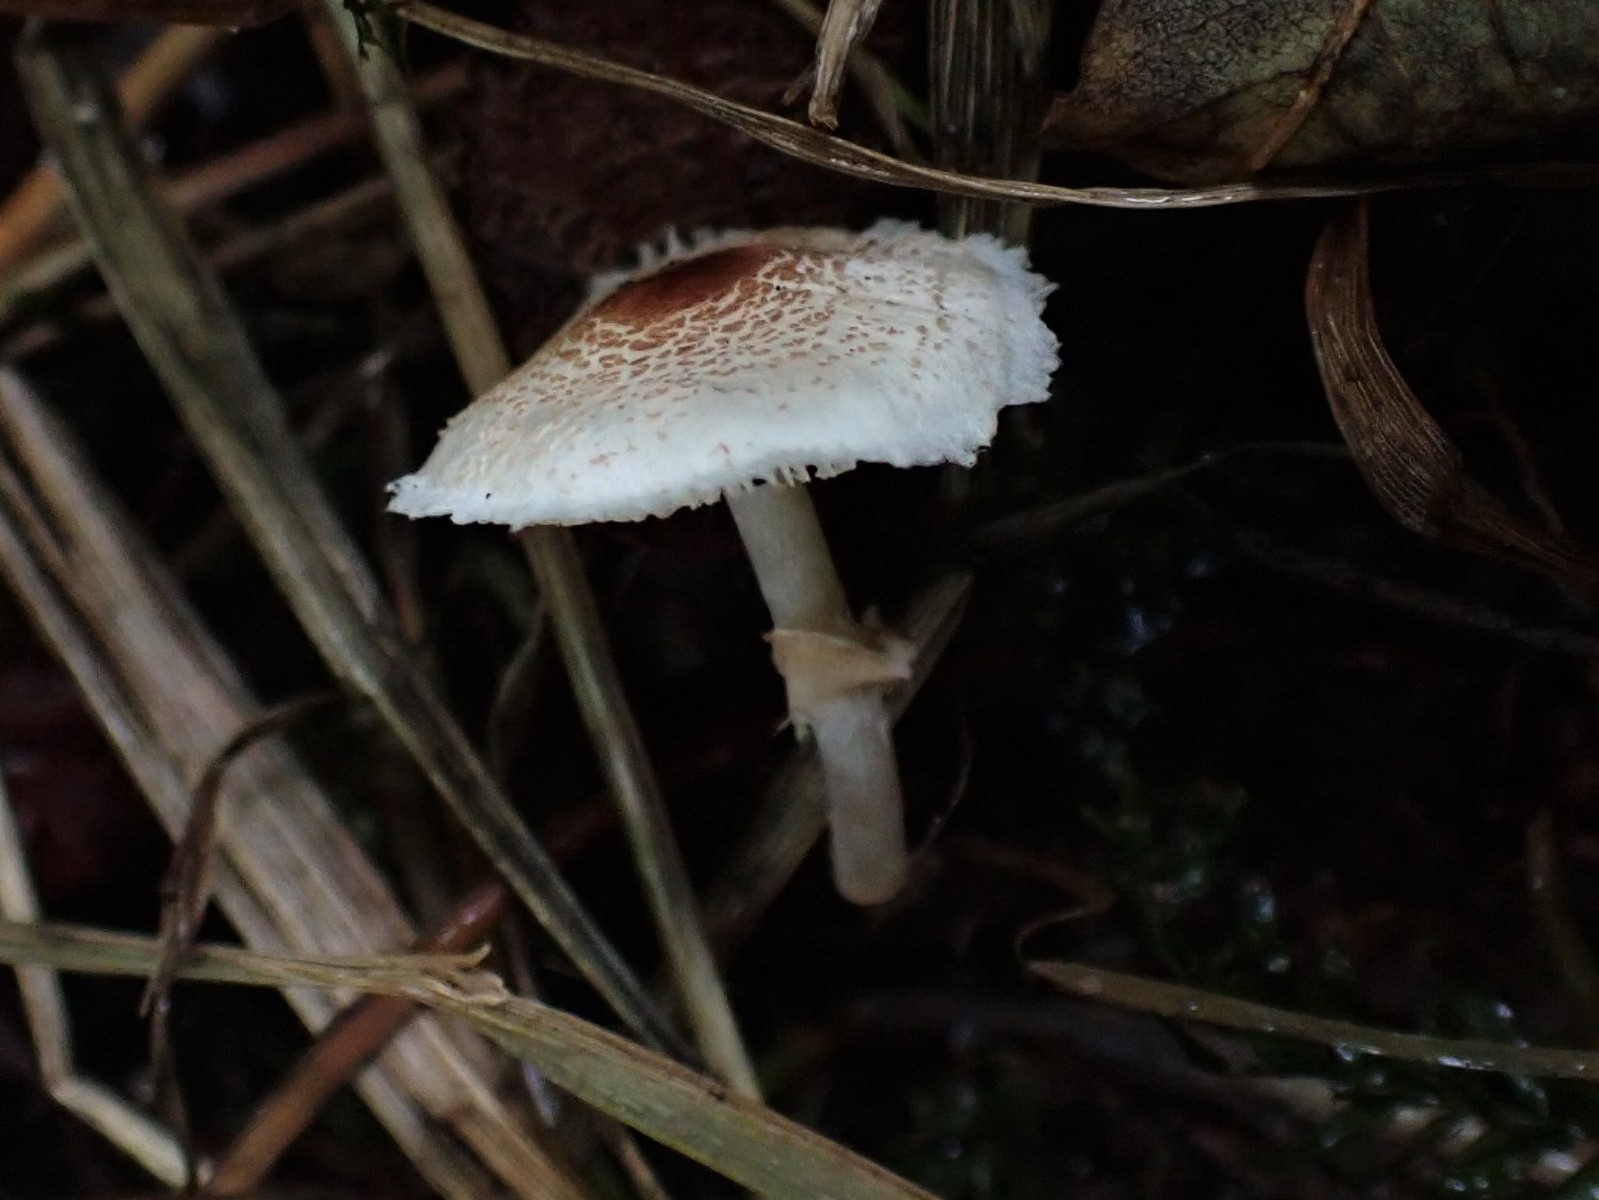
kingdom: Fungi
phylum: Basidiomycota
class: Agaricomycetes
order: Agaricales
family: Agaricaceae
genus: Lepiota
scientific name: Lepiota cristata
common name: stinkende parasolhat
